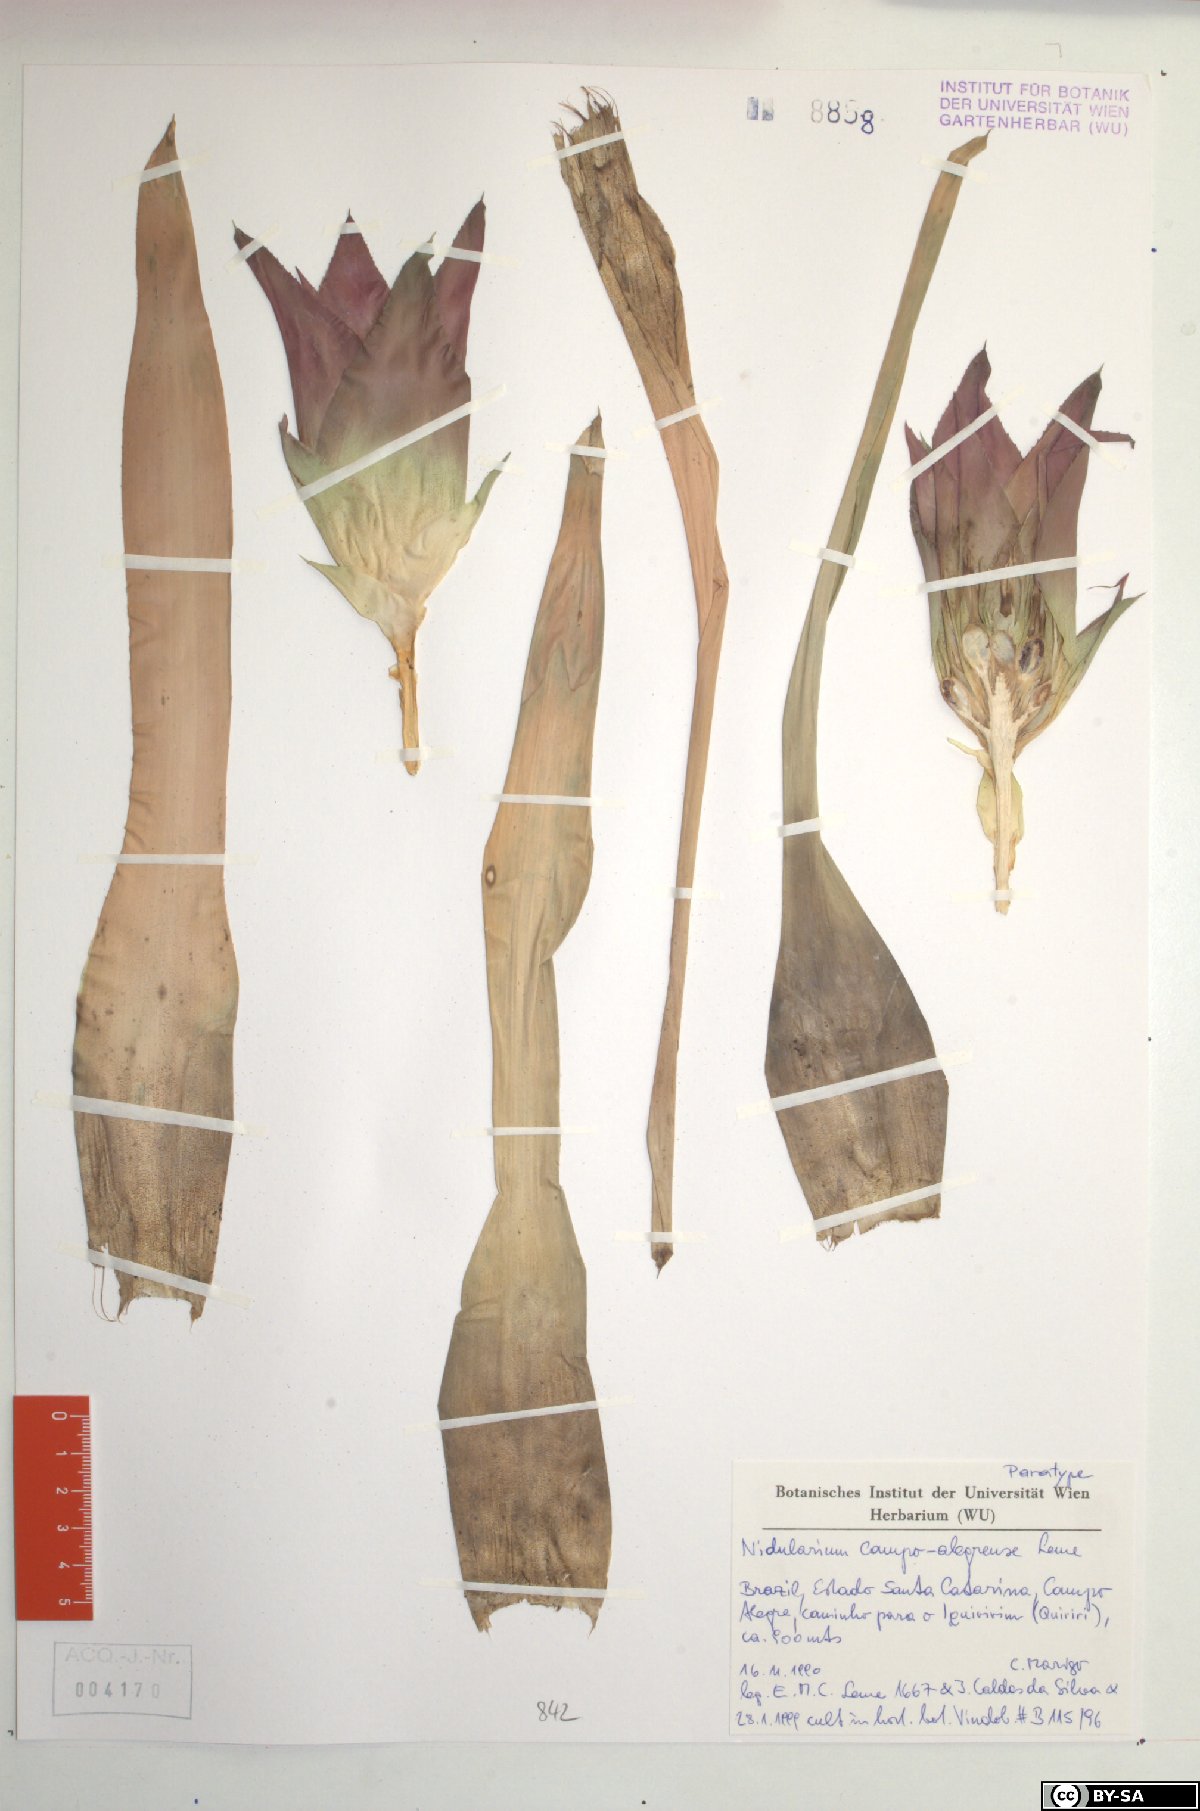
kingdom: Plantae
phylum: Tracheophyta
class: Liliopsida
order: Poales
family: Bromeliaceae
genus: Nidularium
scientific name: Nidularium campo-alegrense
